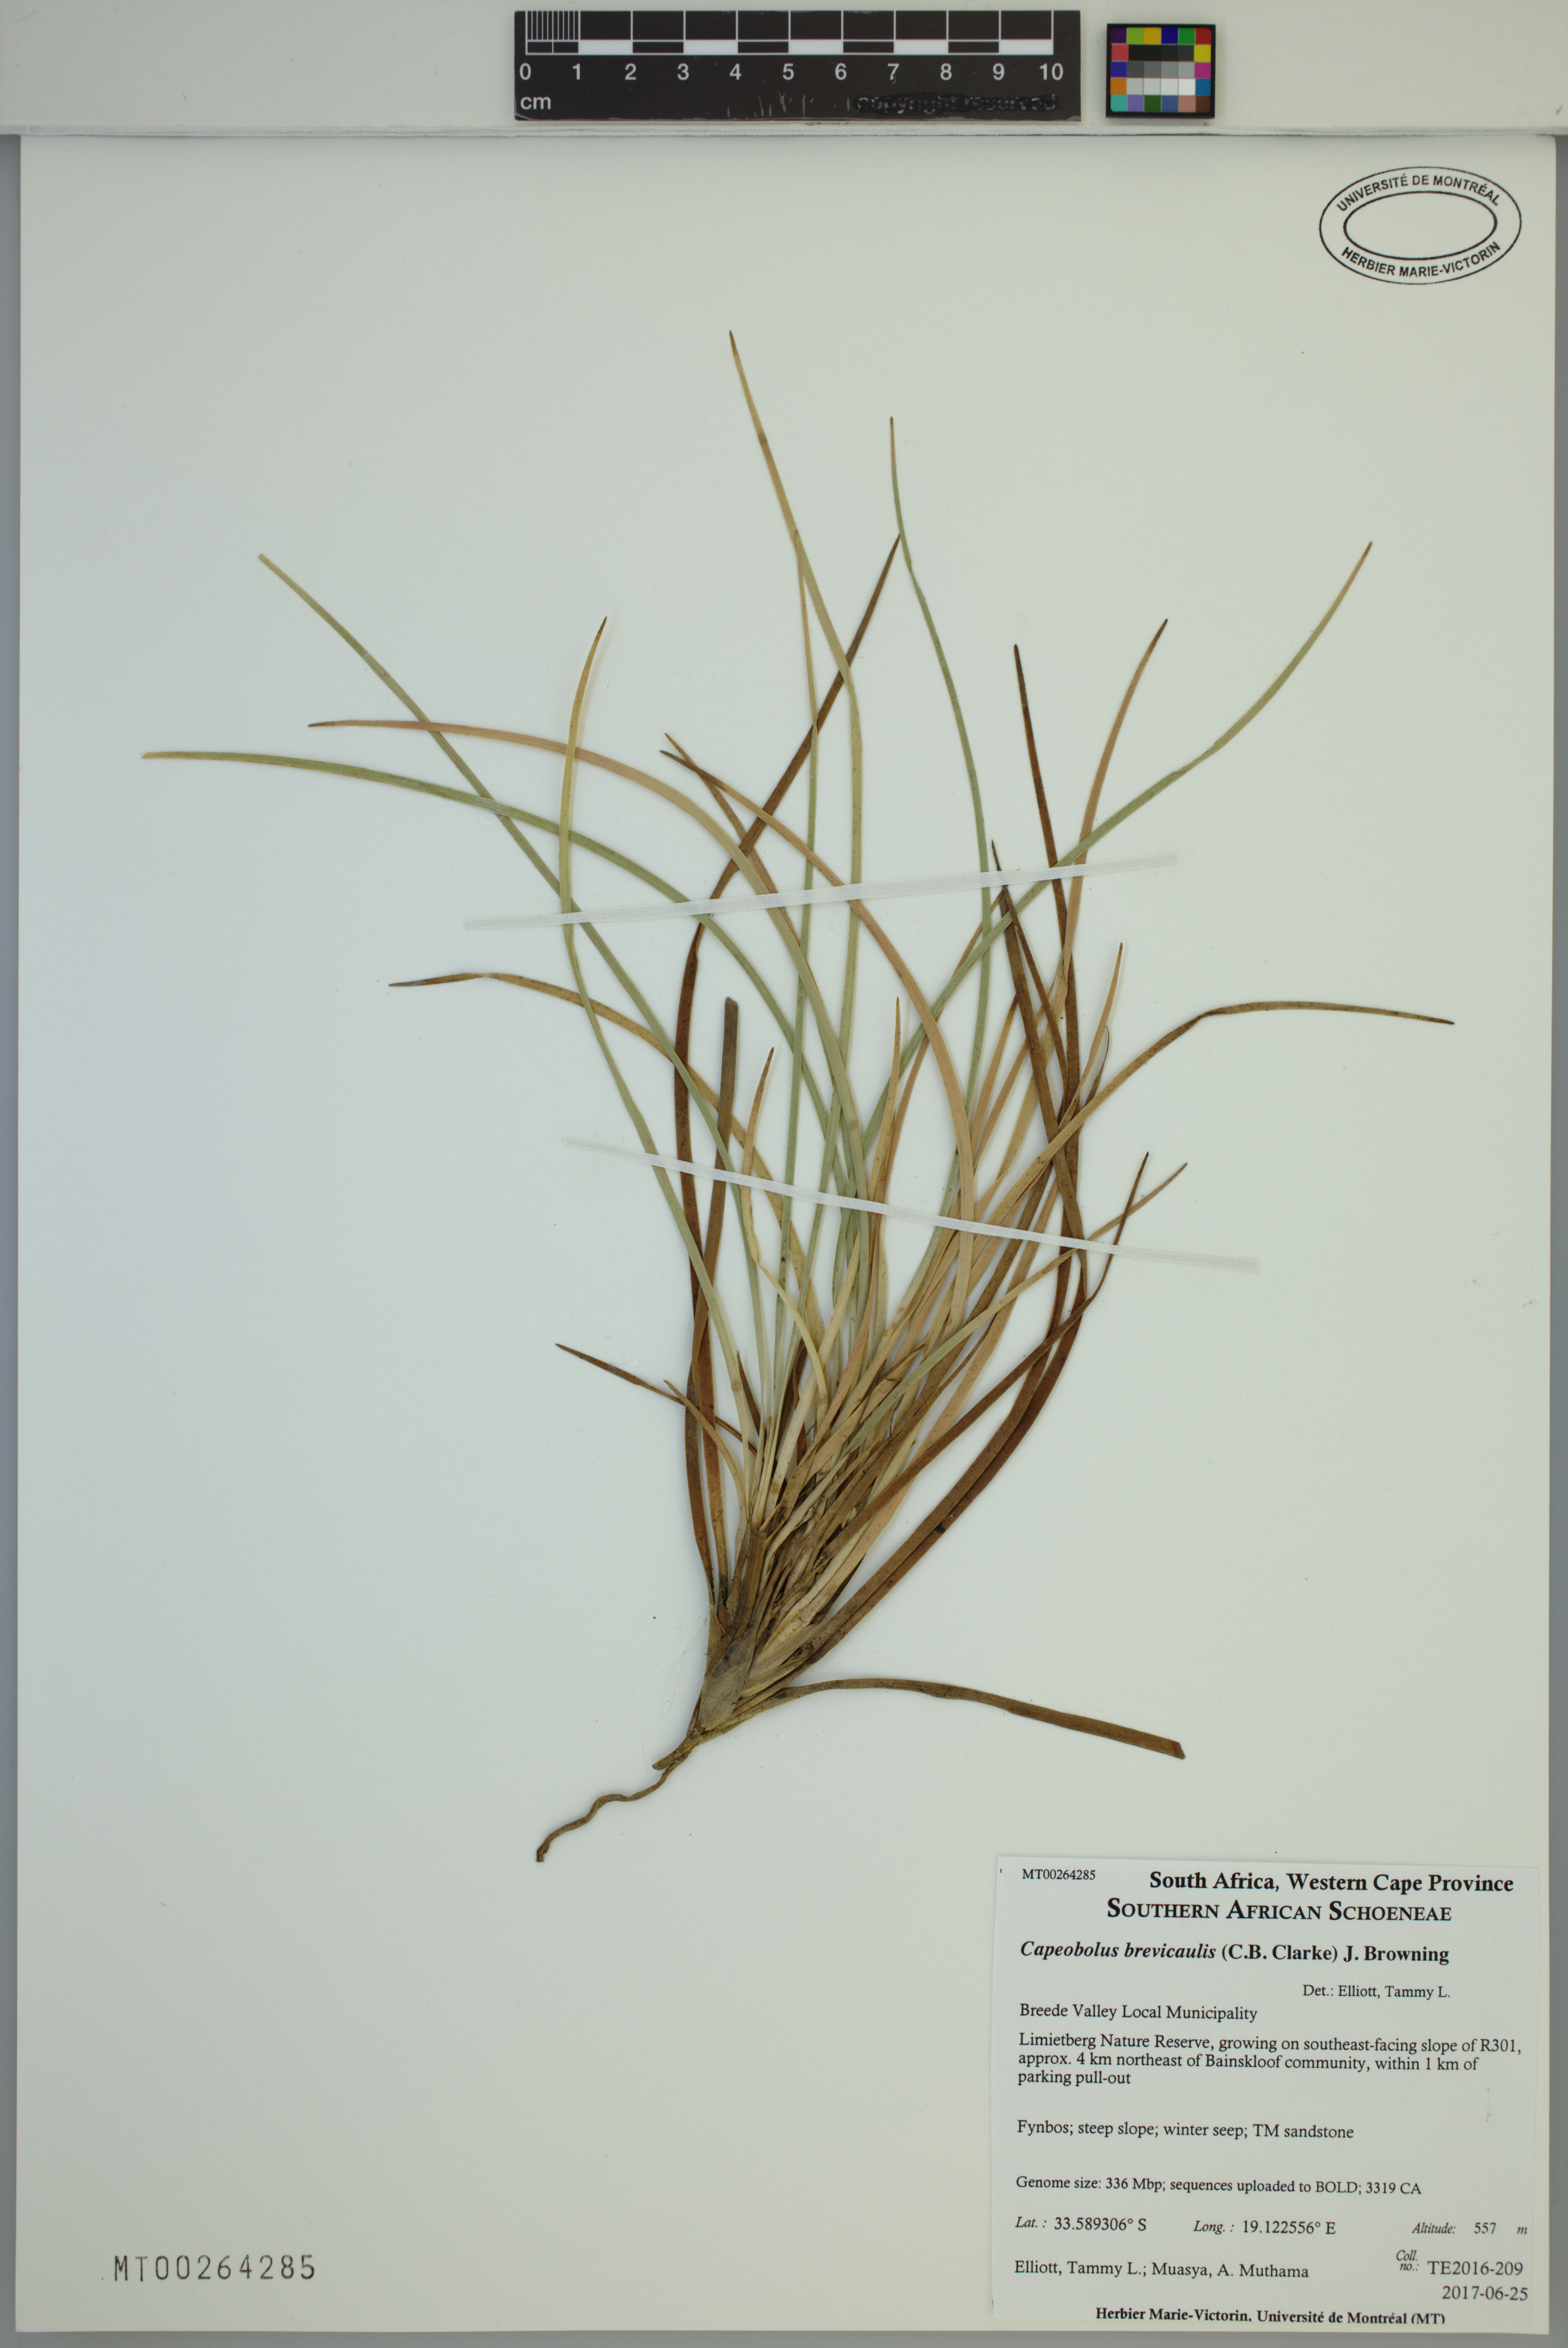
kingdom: Plantae
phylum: Tracheophyta
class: Liliopsida
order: Poales
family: Cyperaceae
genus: Capeobolus
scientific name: Capeobolus brevicaulis
